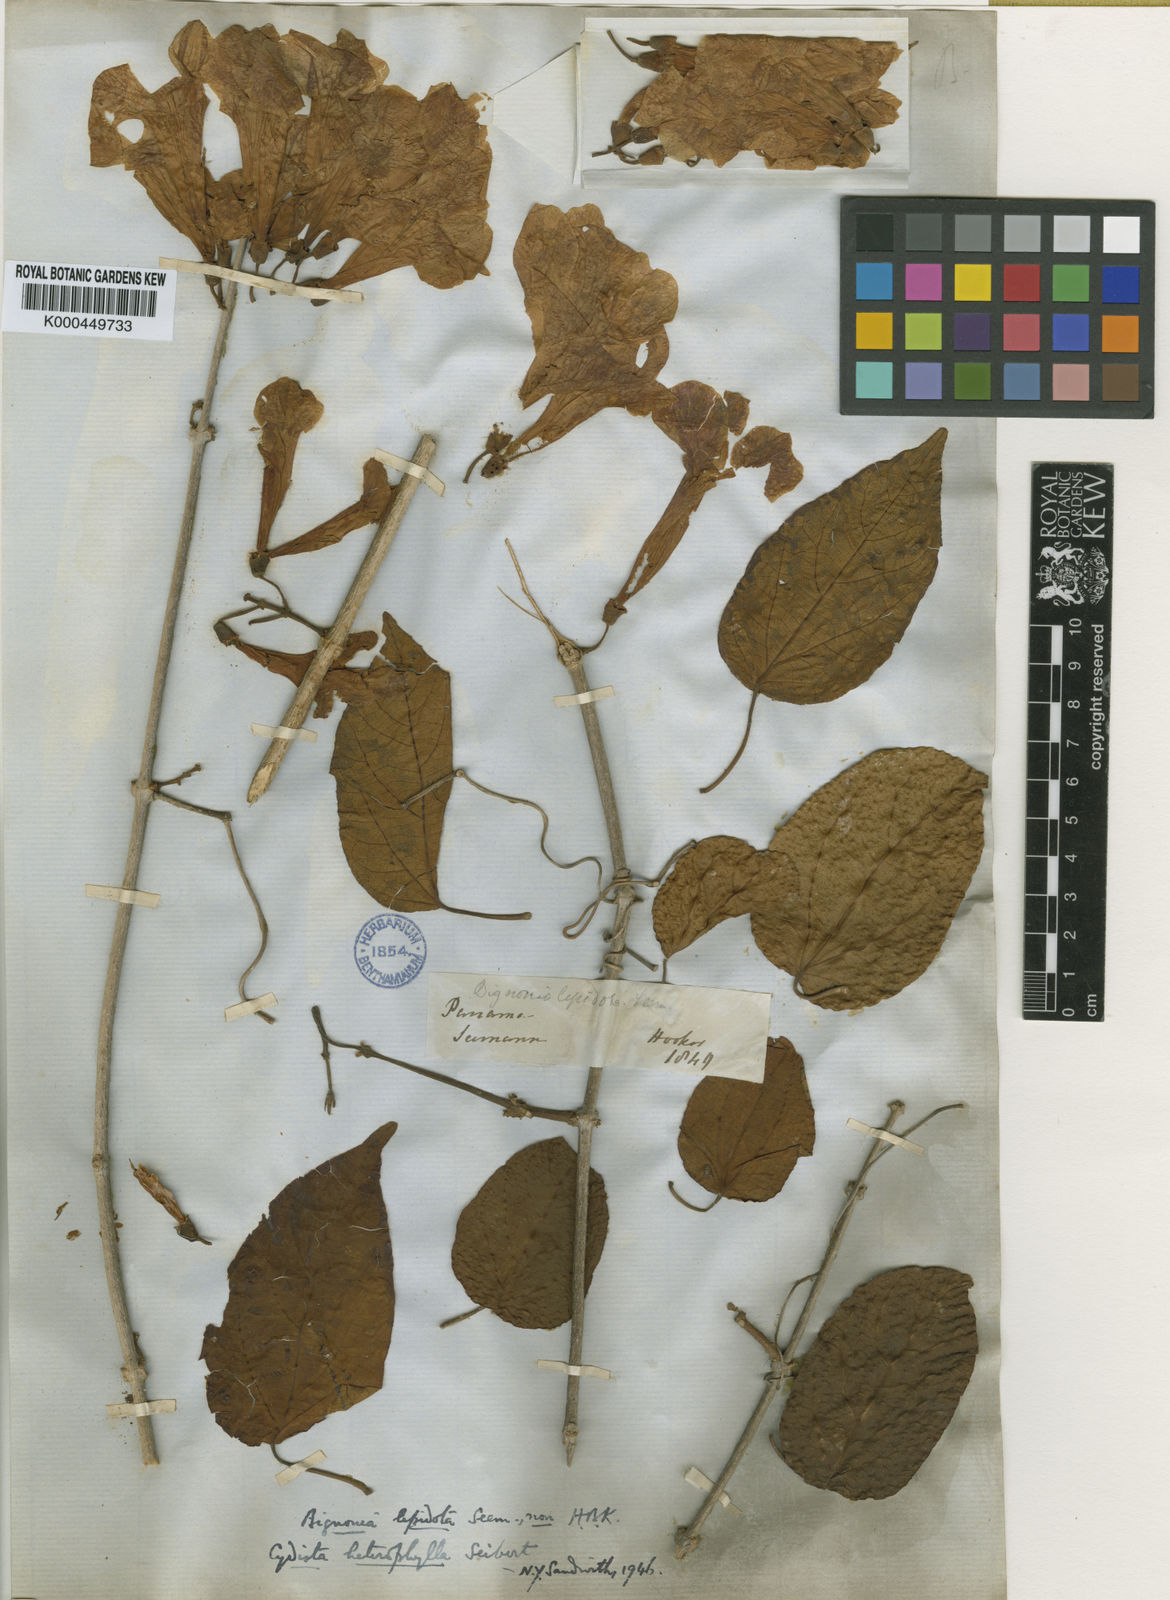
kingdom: Plantae
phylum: Tracheophyta
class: Magnoliopsida
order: Lamiales
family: Bignoniaceae
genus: Bignonia
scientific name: Bignonia neoheterophylla
